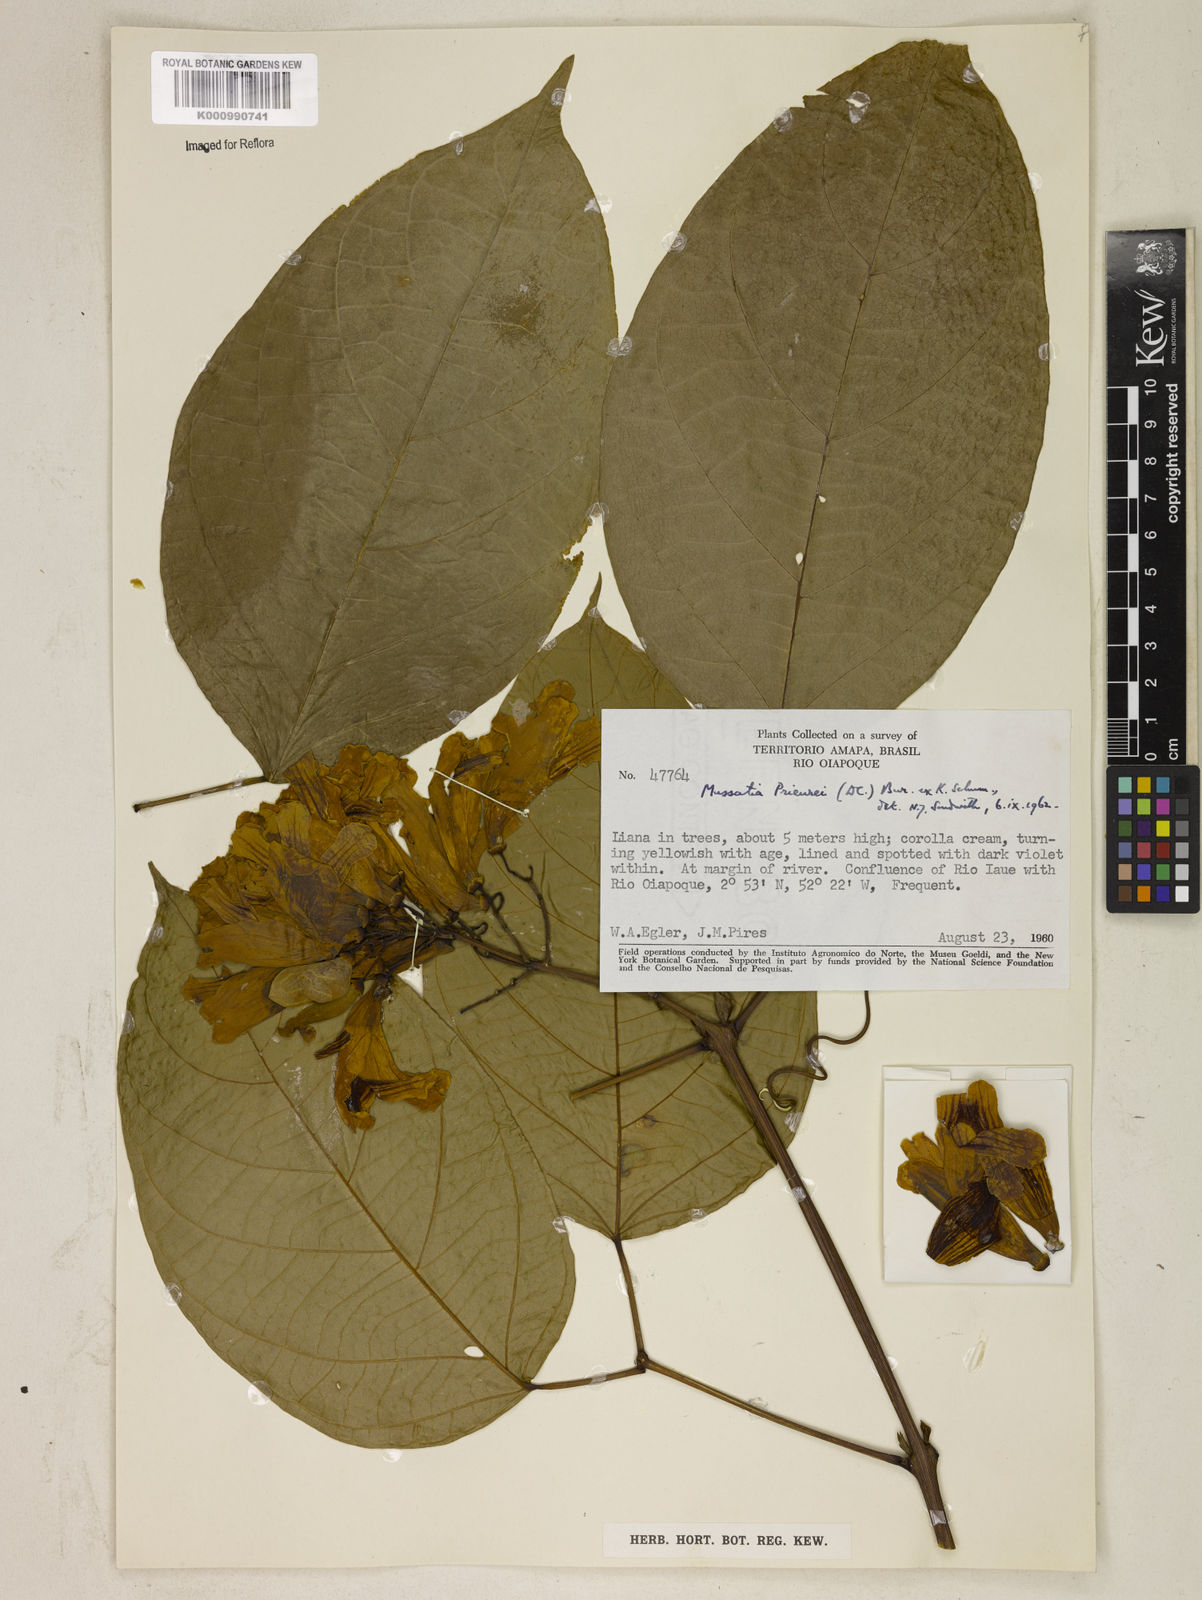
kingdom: Plantae
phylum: Tracheophyta
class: Magnoliopsida
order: Lamiales
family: Bignoniaceae
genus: Mussatia
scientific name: Mussatia
